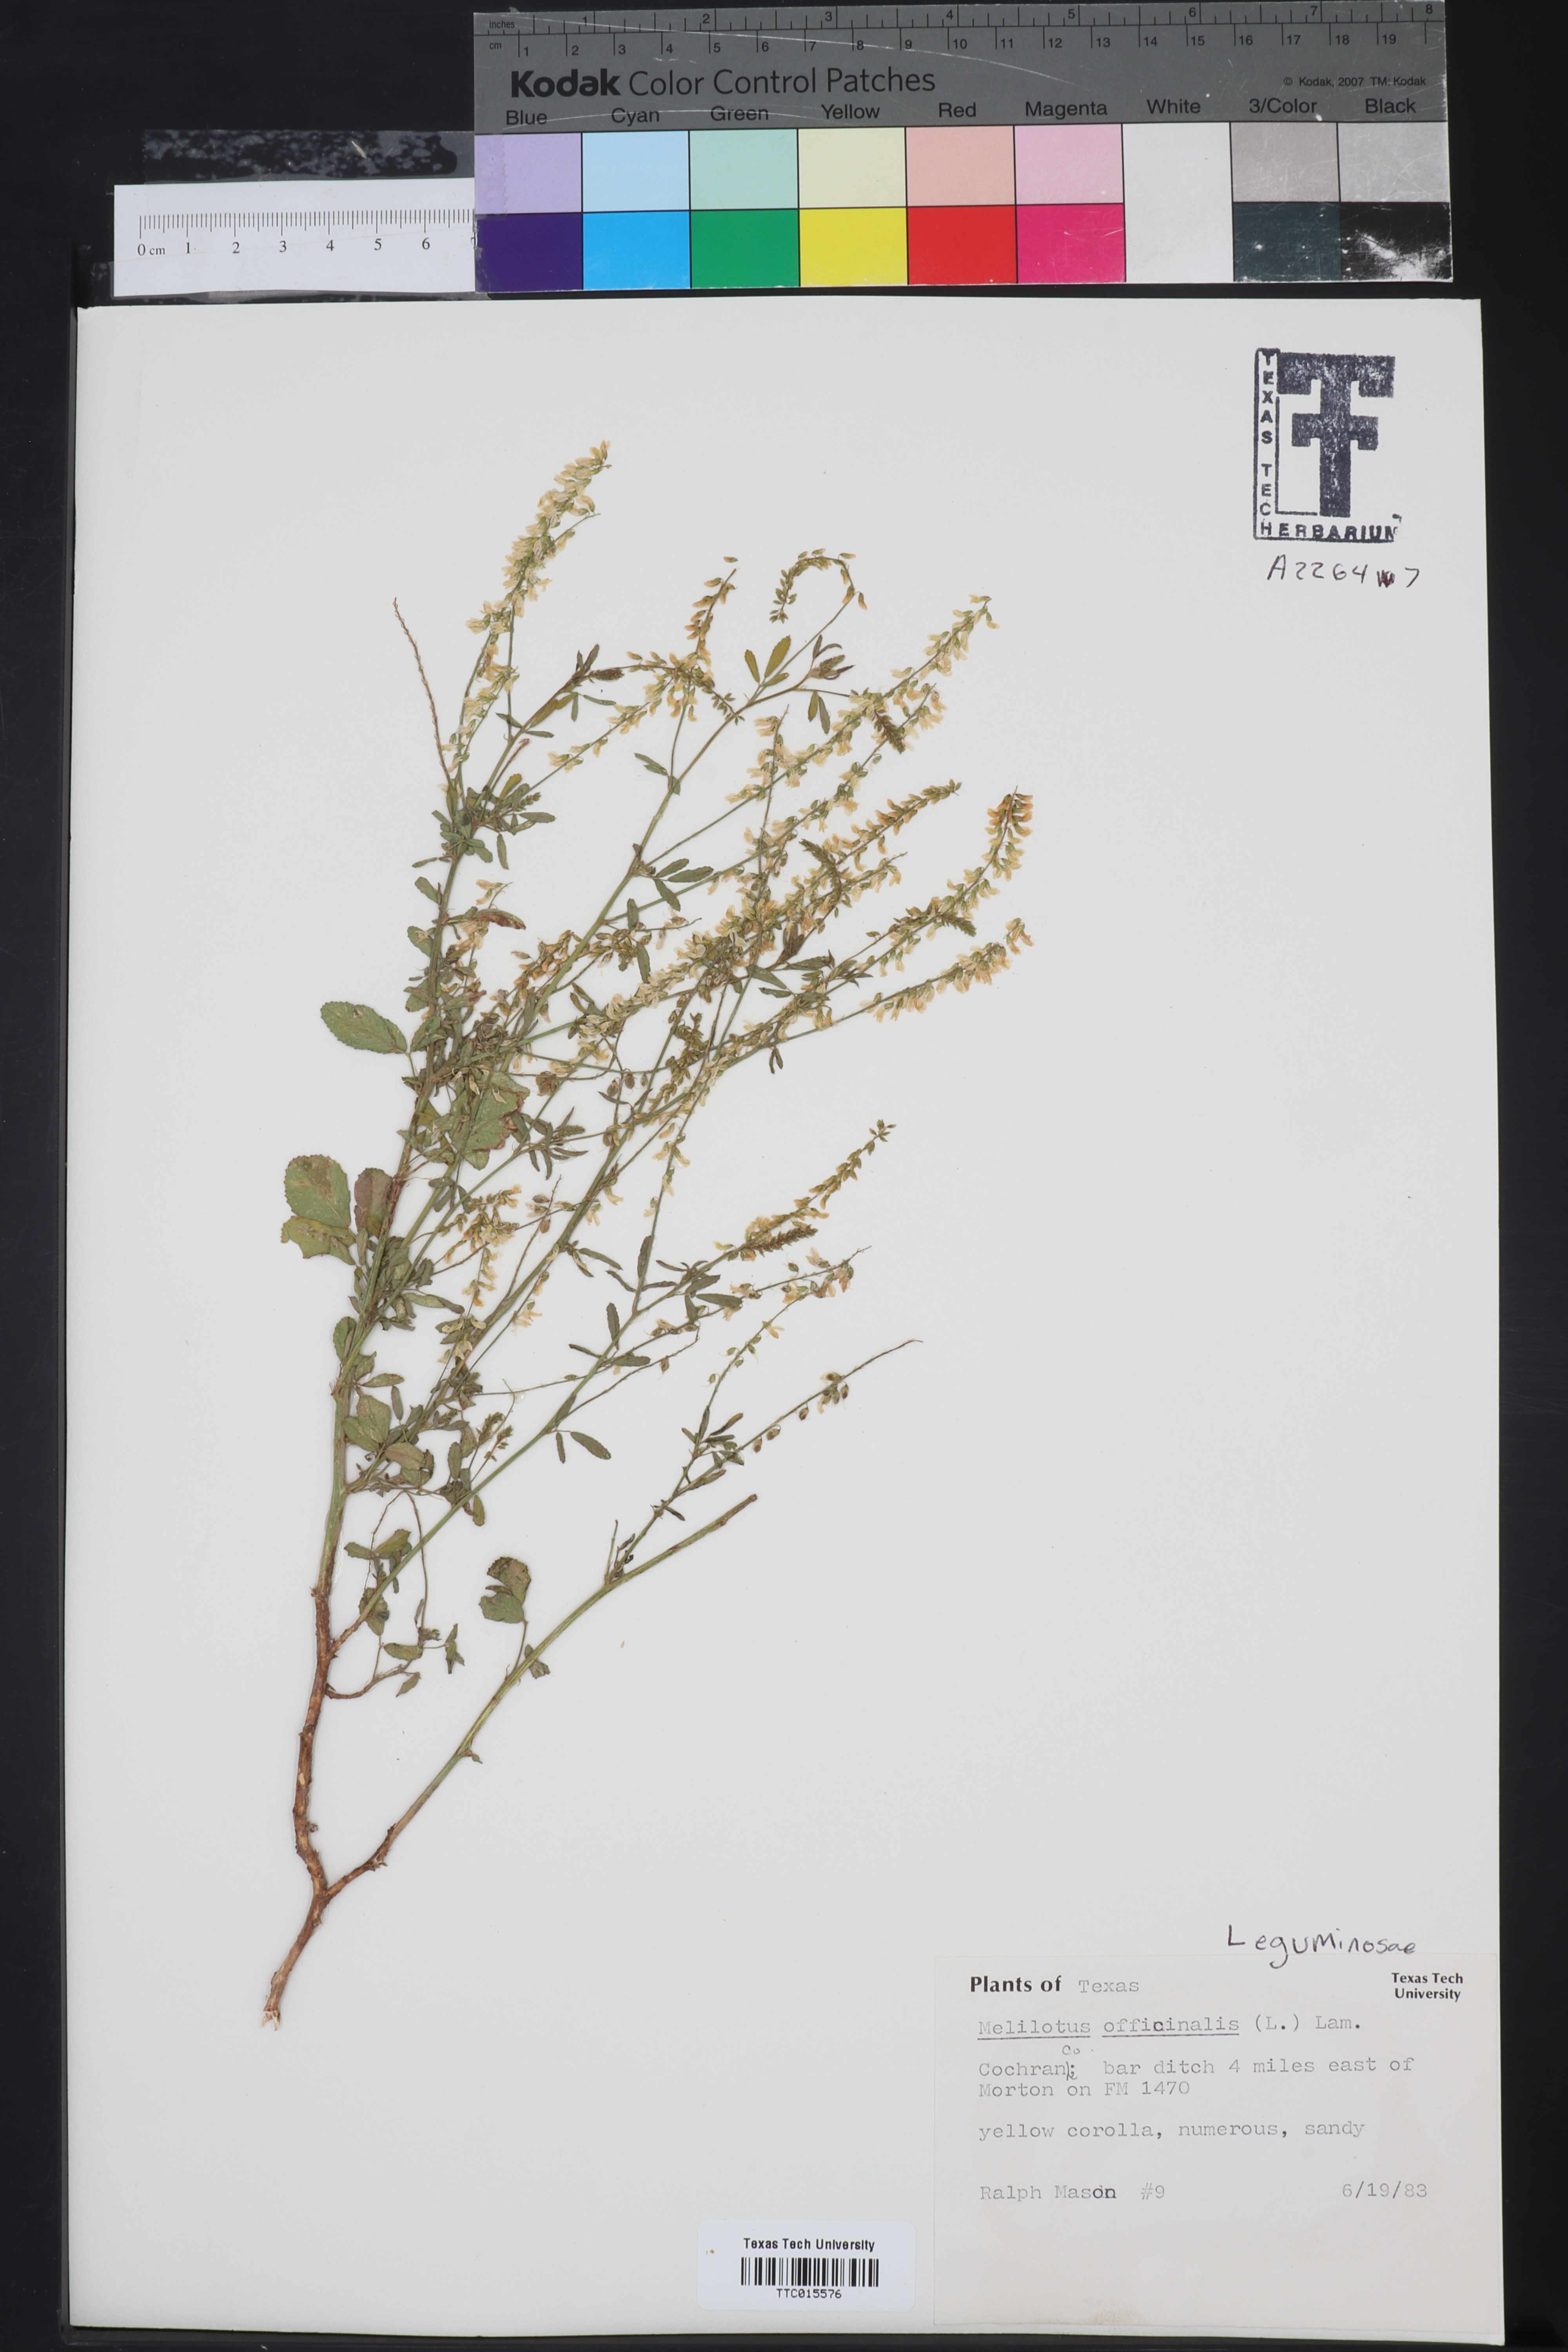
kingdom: Plantae
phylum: Tracheophyta
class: Magnoliopsida
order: Fabales
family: Fabaceae
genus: Melilotus
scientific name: Melilotus officinalis
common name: Sweetclover
